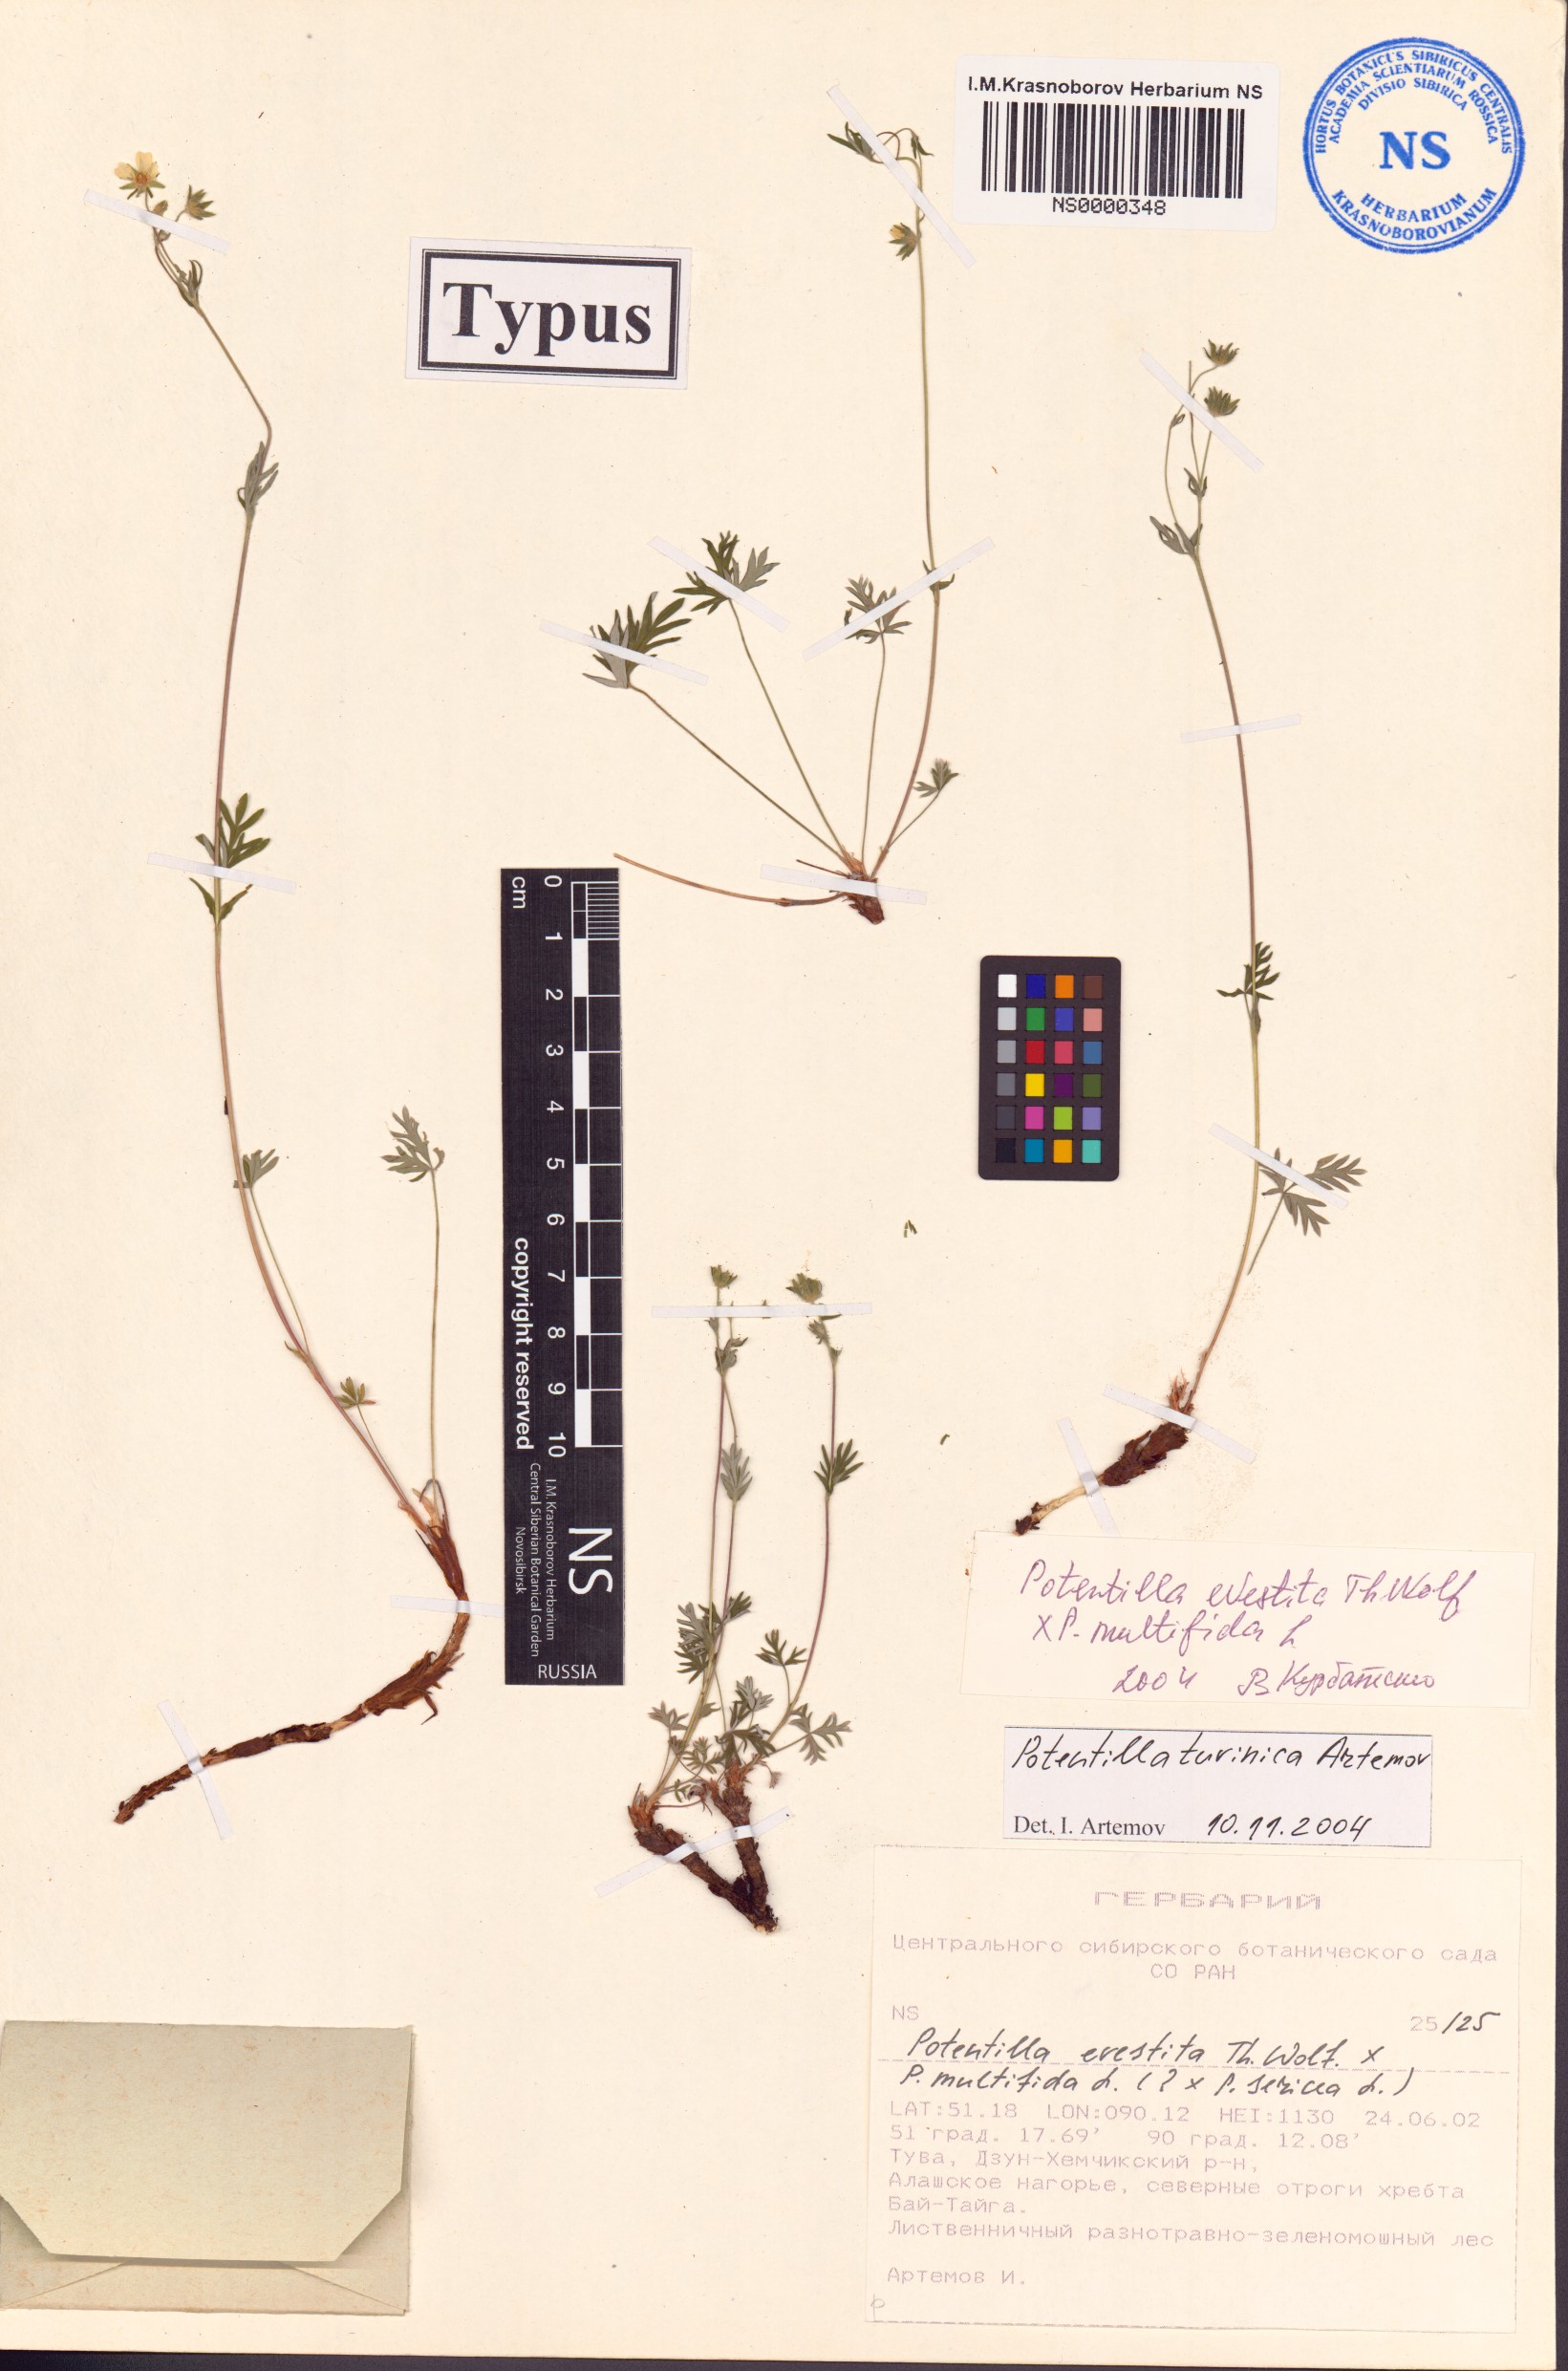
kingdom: Plantae
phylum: Tracheophyta
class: Magnoliopsida
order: Rosales
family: Rosaceae
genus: Potentilla
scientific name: Potentilla tuvinica
